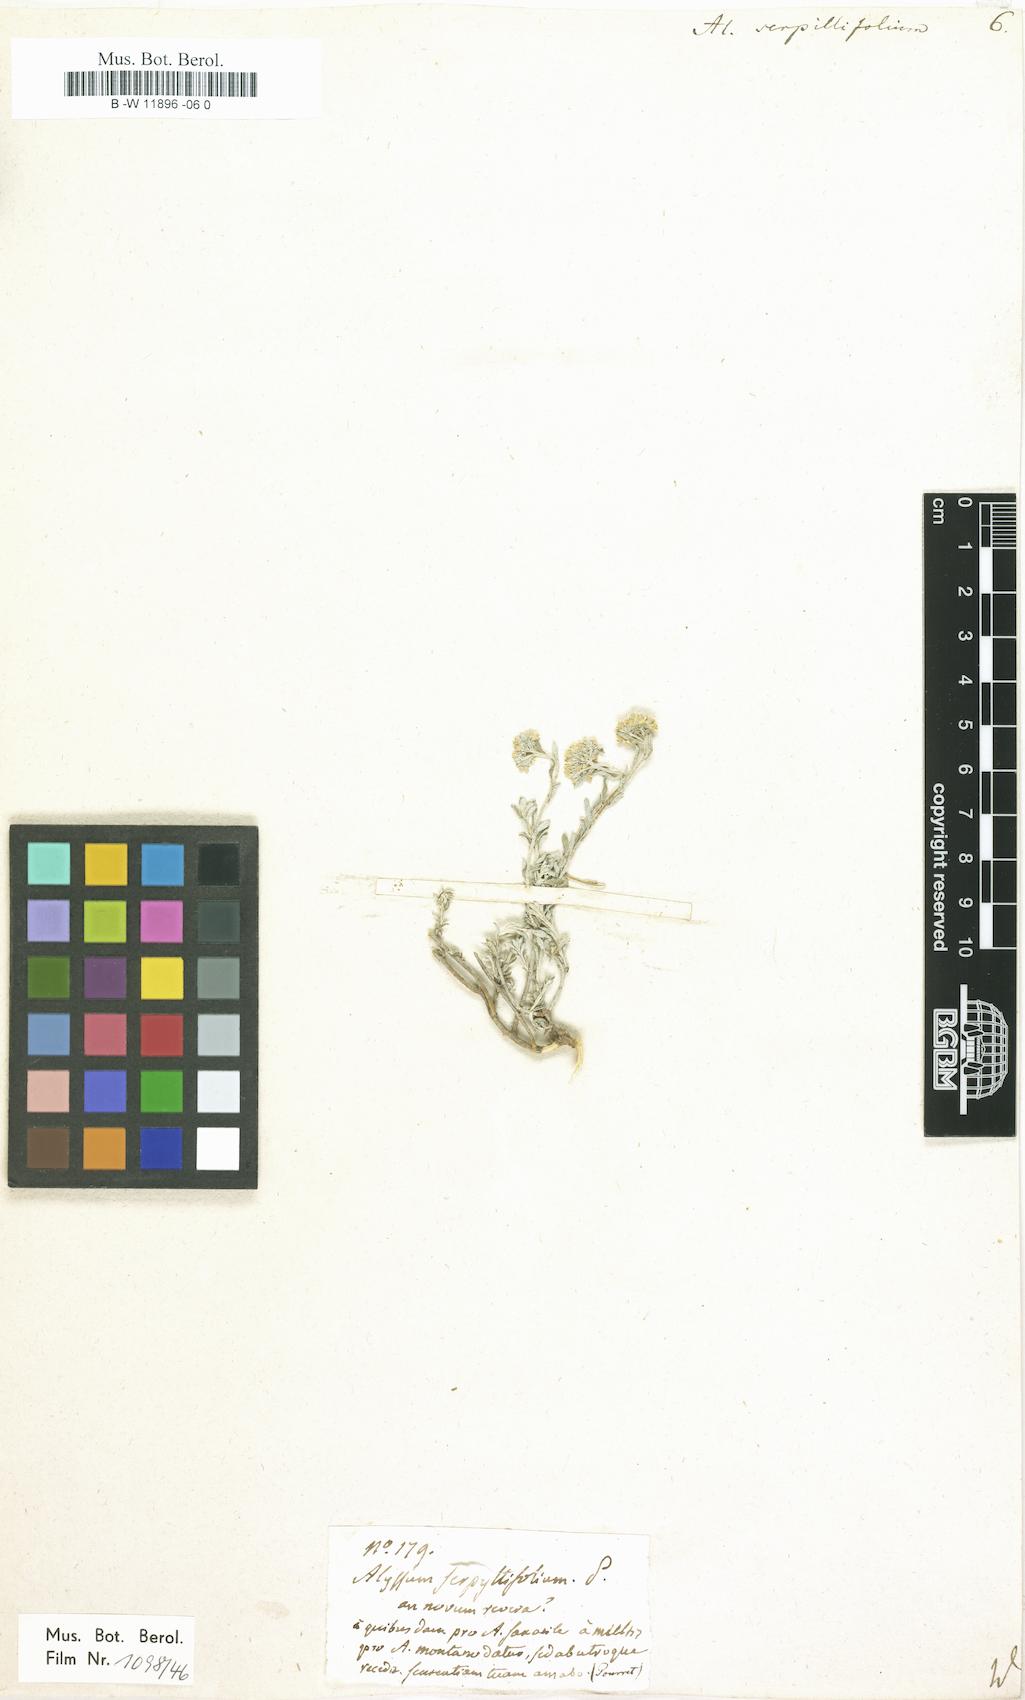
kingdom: Plantae
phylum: Tracheophyta
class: Magnoliopsida
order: Brassicales
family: Brassicaceae
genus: Odontarrhena
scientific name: Odontarrhena serpyllifolia
